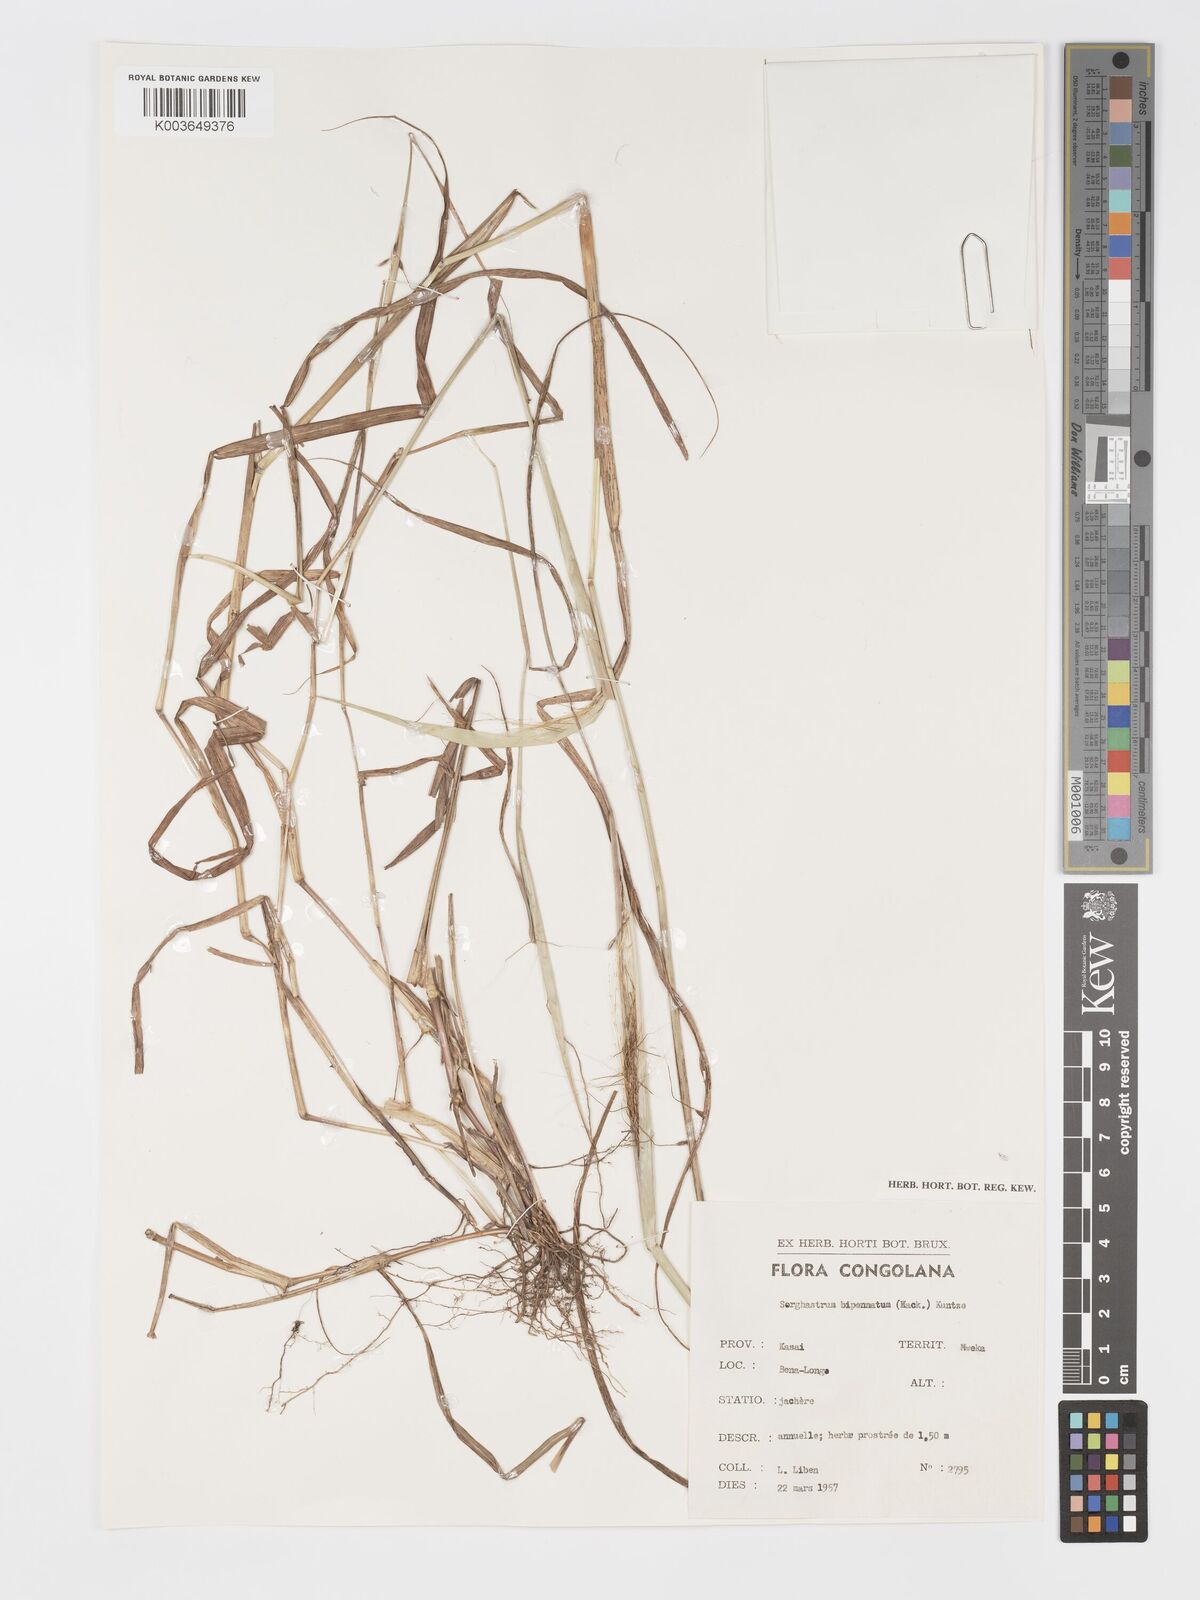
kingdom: Plantae
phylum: Tracheophyta
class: Liliopsida
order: Poales
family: Poaceae
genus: Sorghastrum
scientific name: Sorghastrum incompletum
